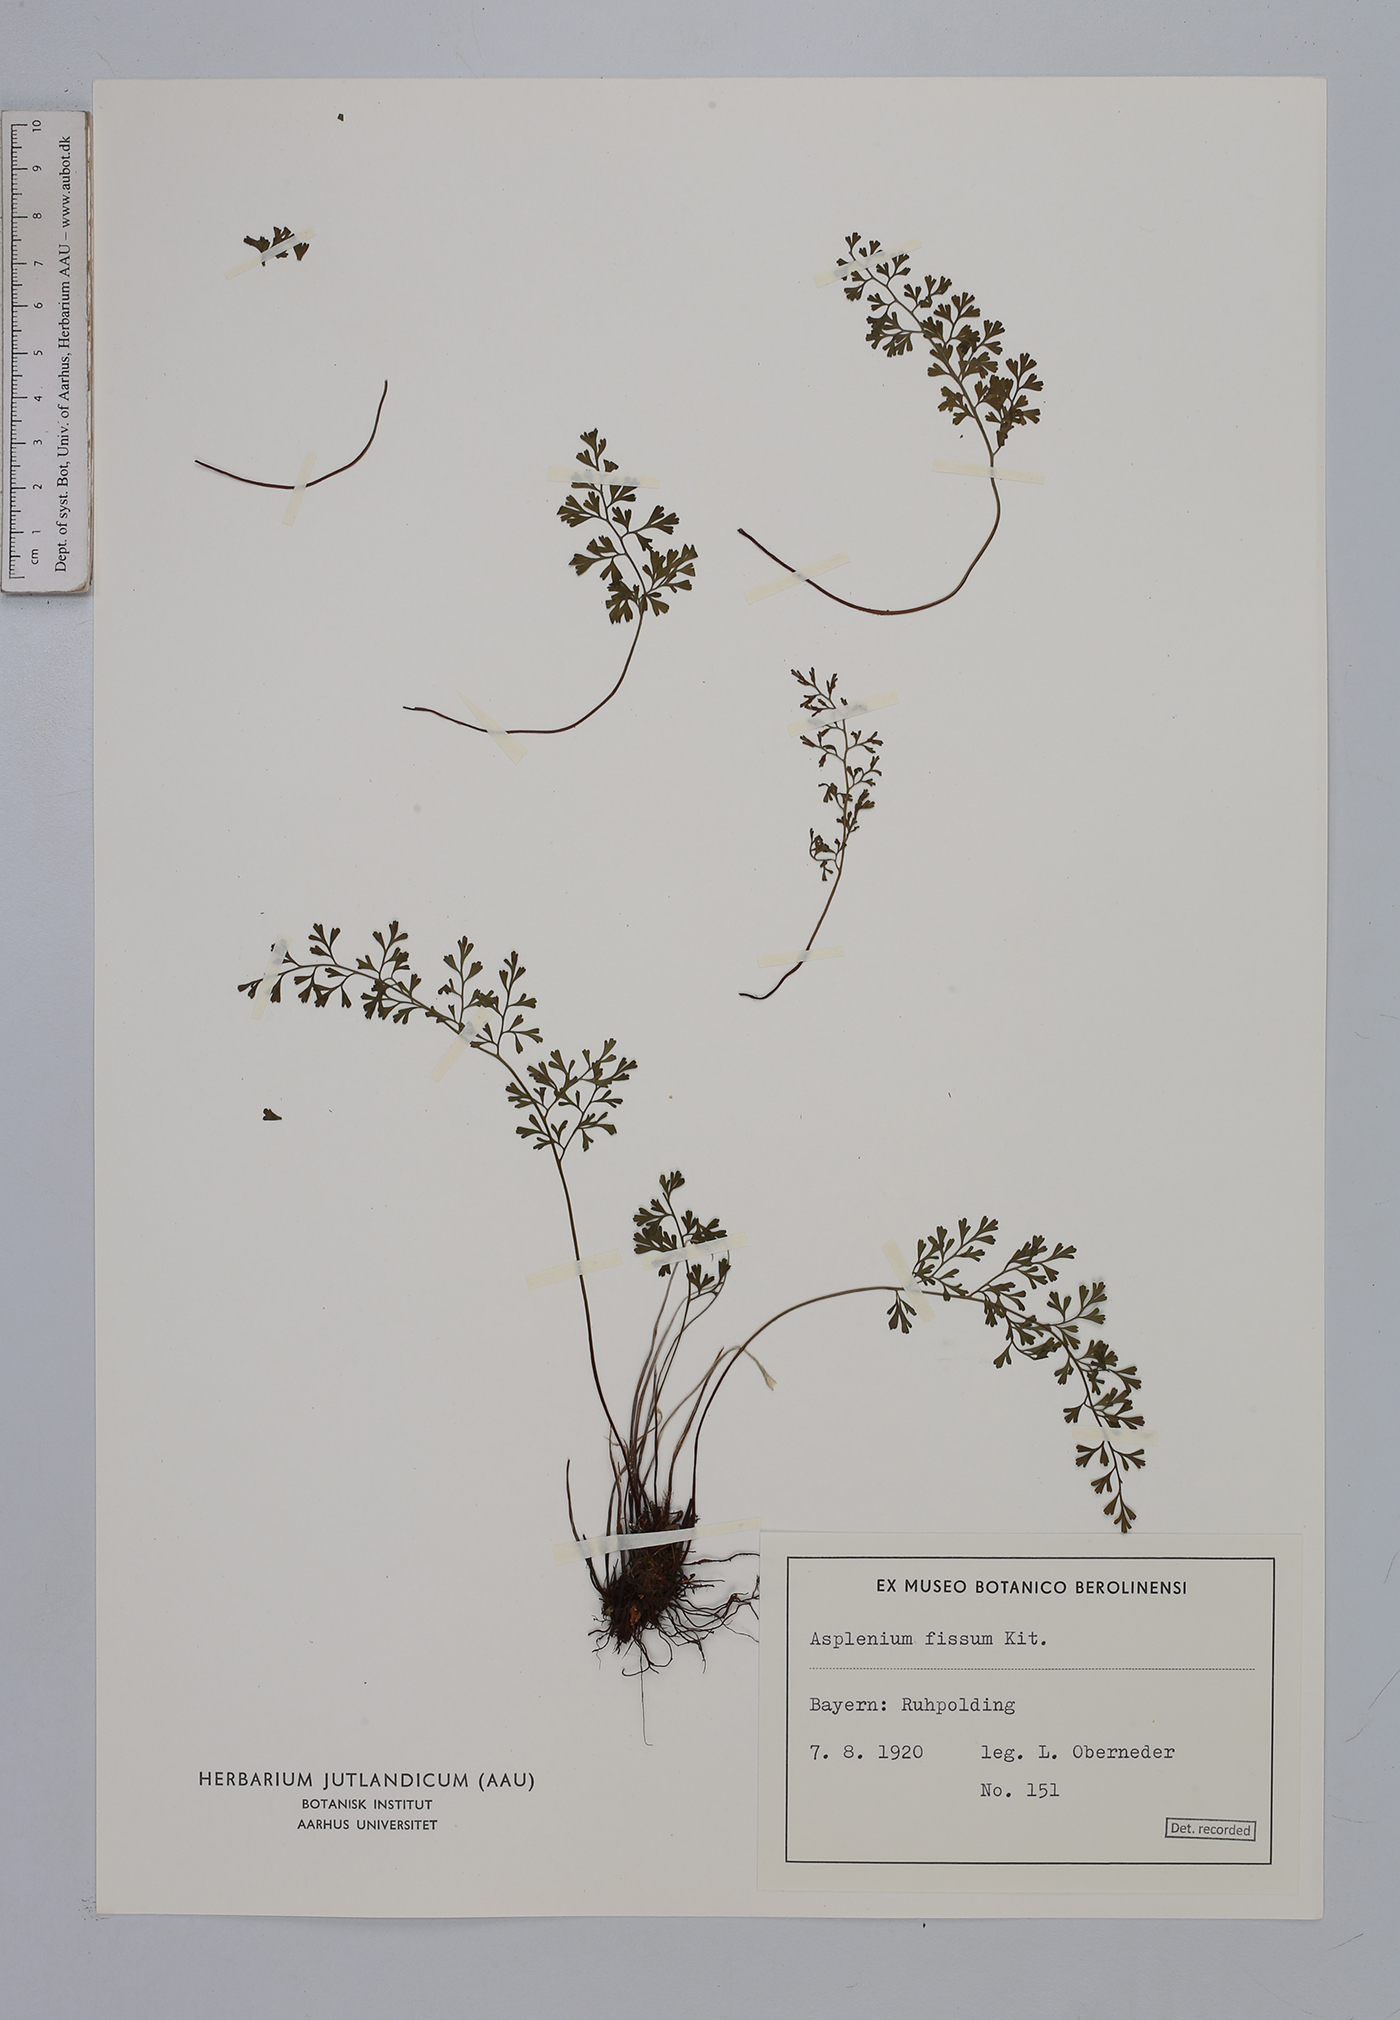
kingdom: Plantae
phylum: Tracheophyta
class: Polypodiopsida
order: Polypodiales
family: Aspleniaceae
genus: Asplenium
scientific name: Asplenium fissum
